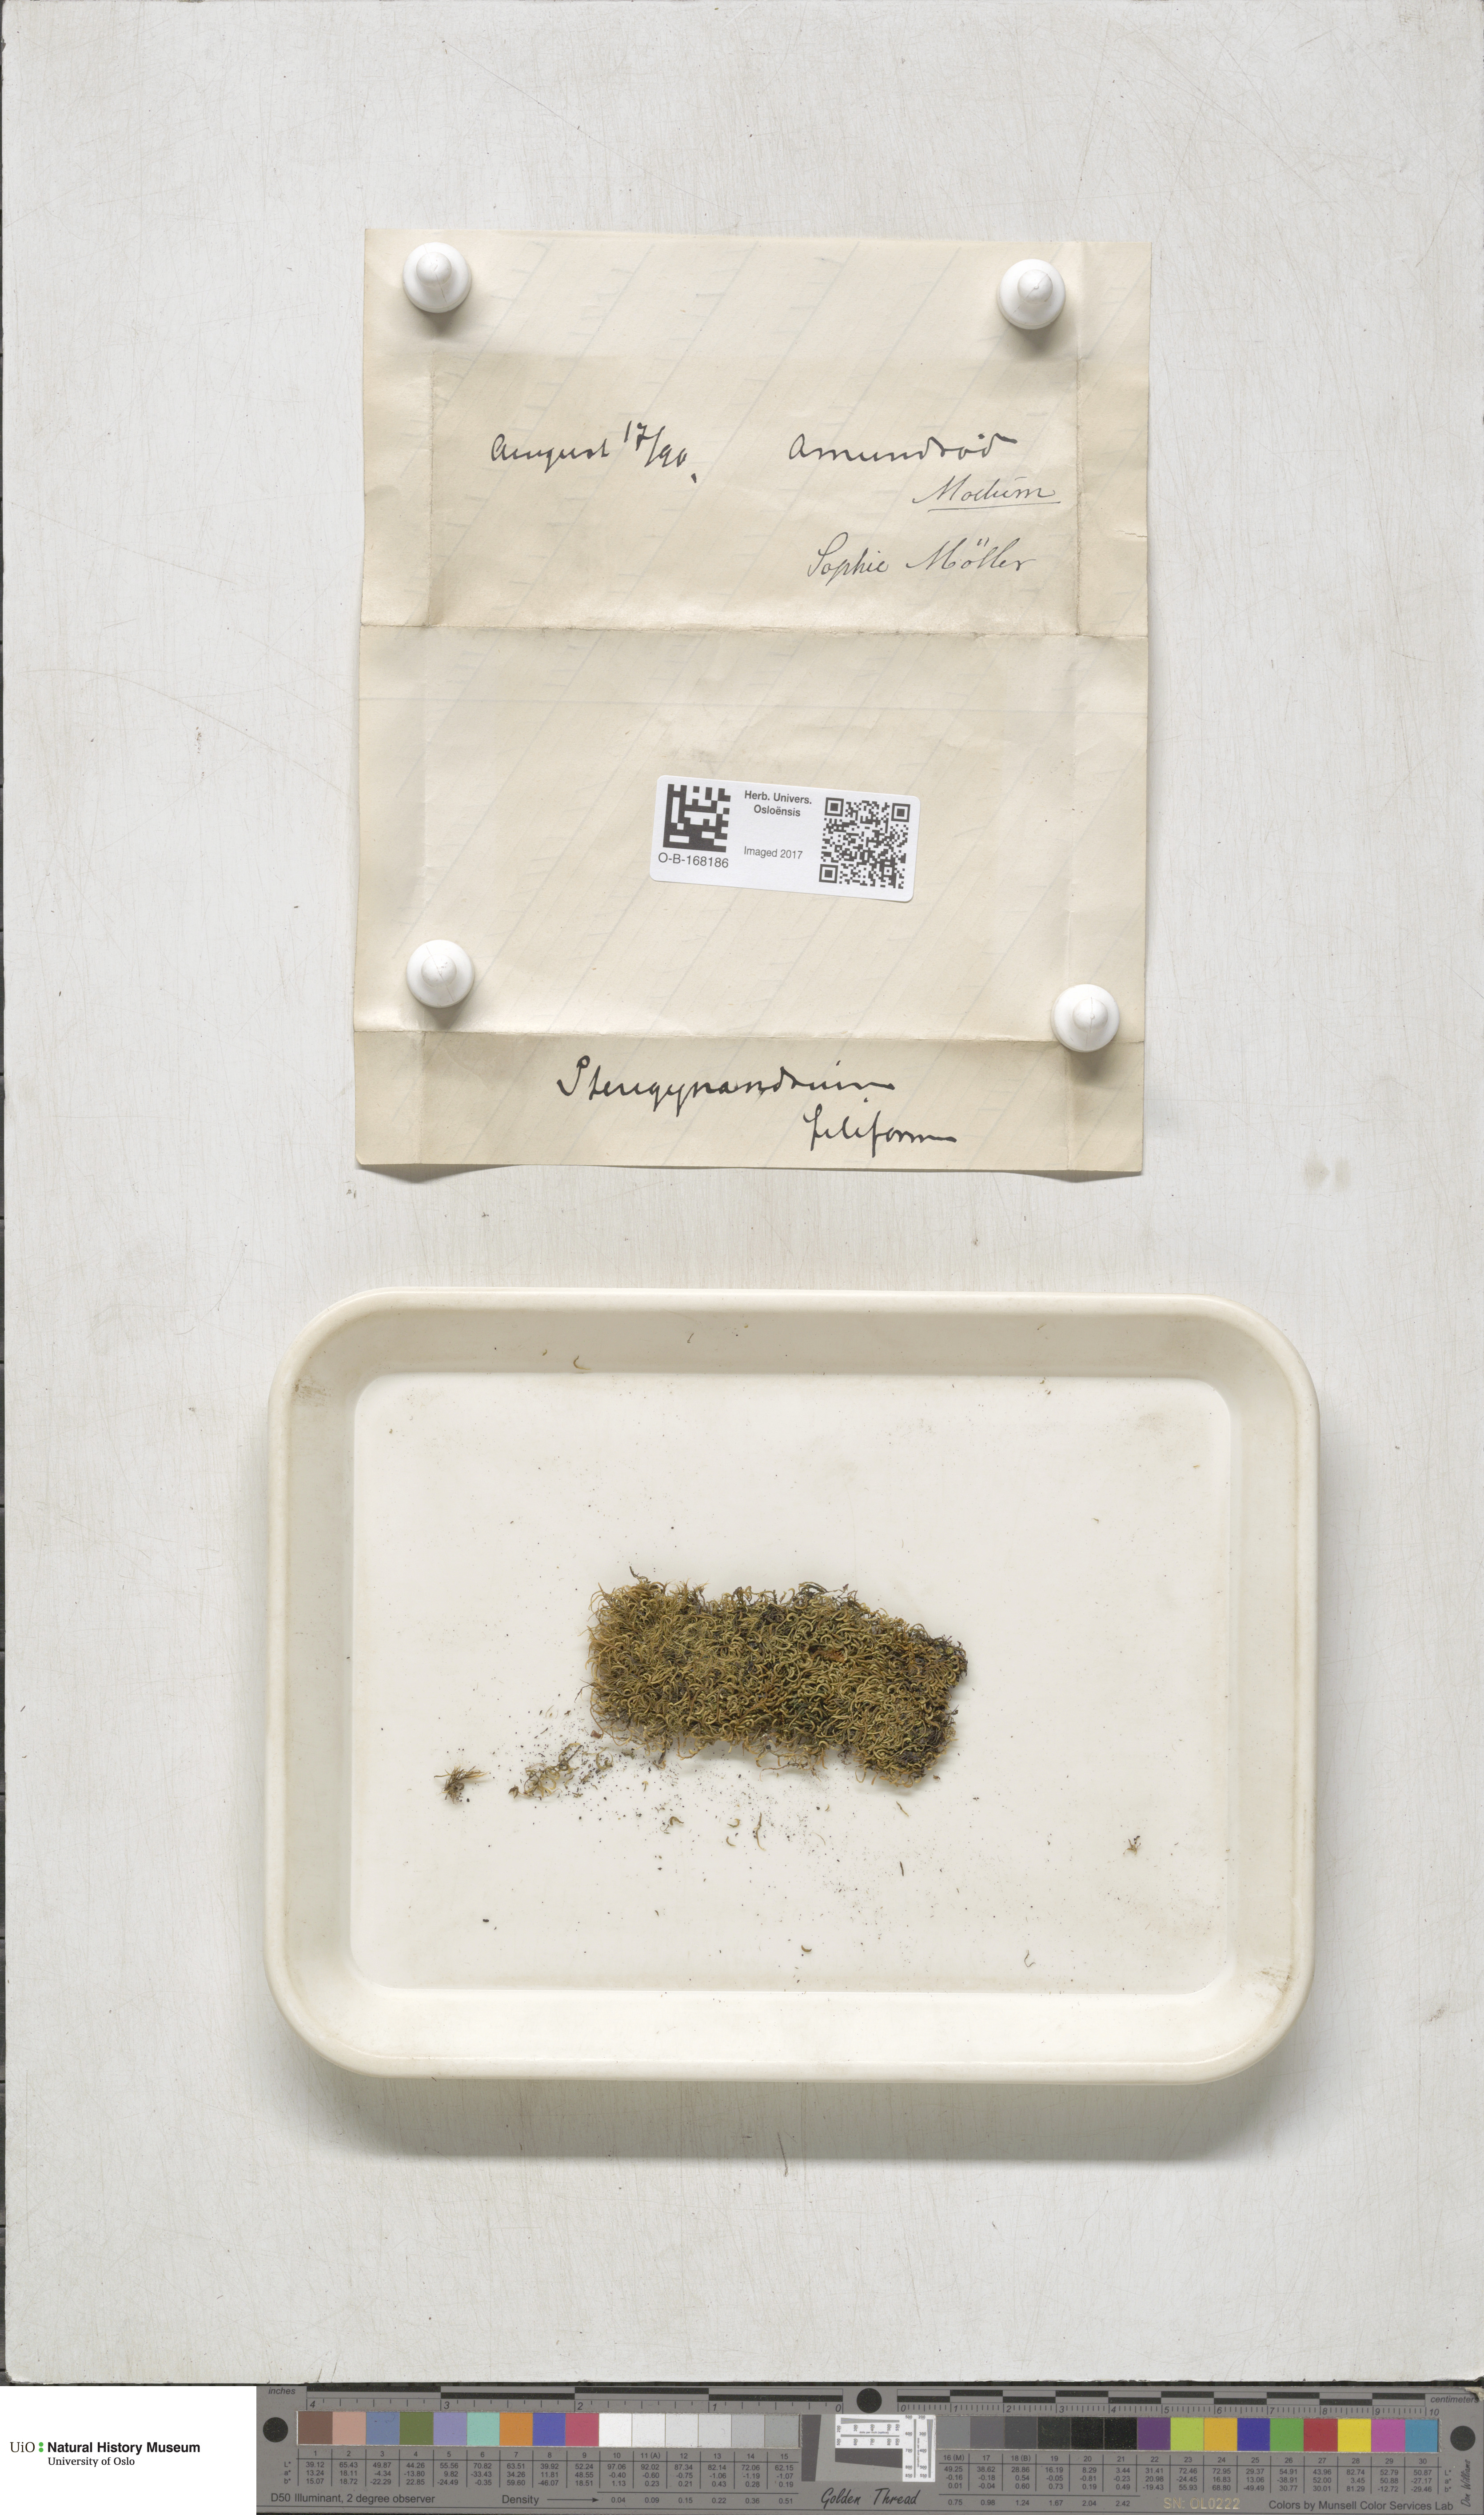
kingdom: Plantae
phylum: Bryophyta
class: Bryopsida
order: Hypnales
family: Pterigynandraceae
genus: Pterigynandrum
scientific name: Pterigynandrum filiforme
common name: Capillary wing moss
